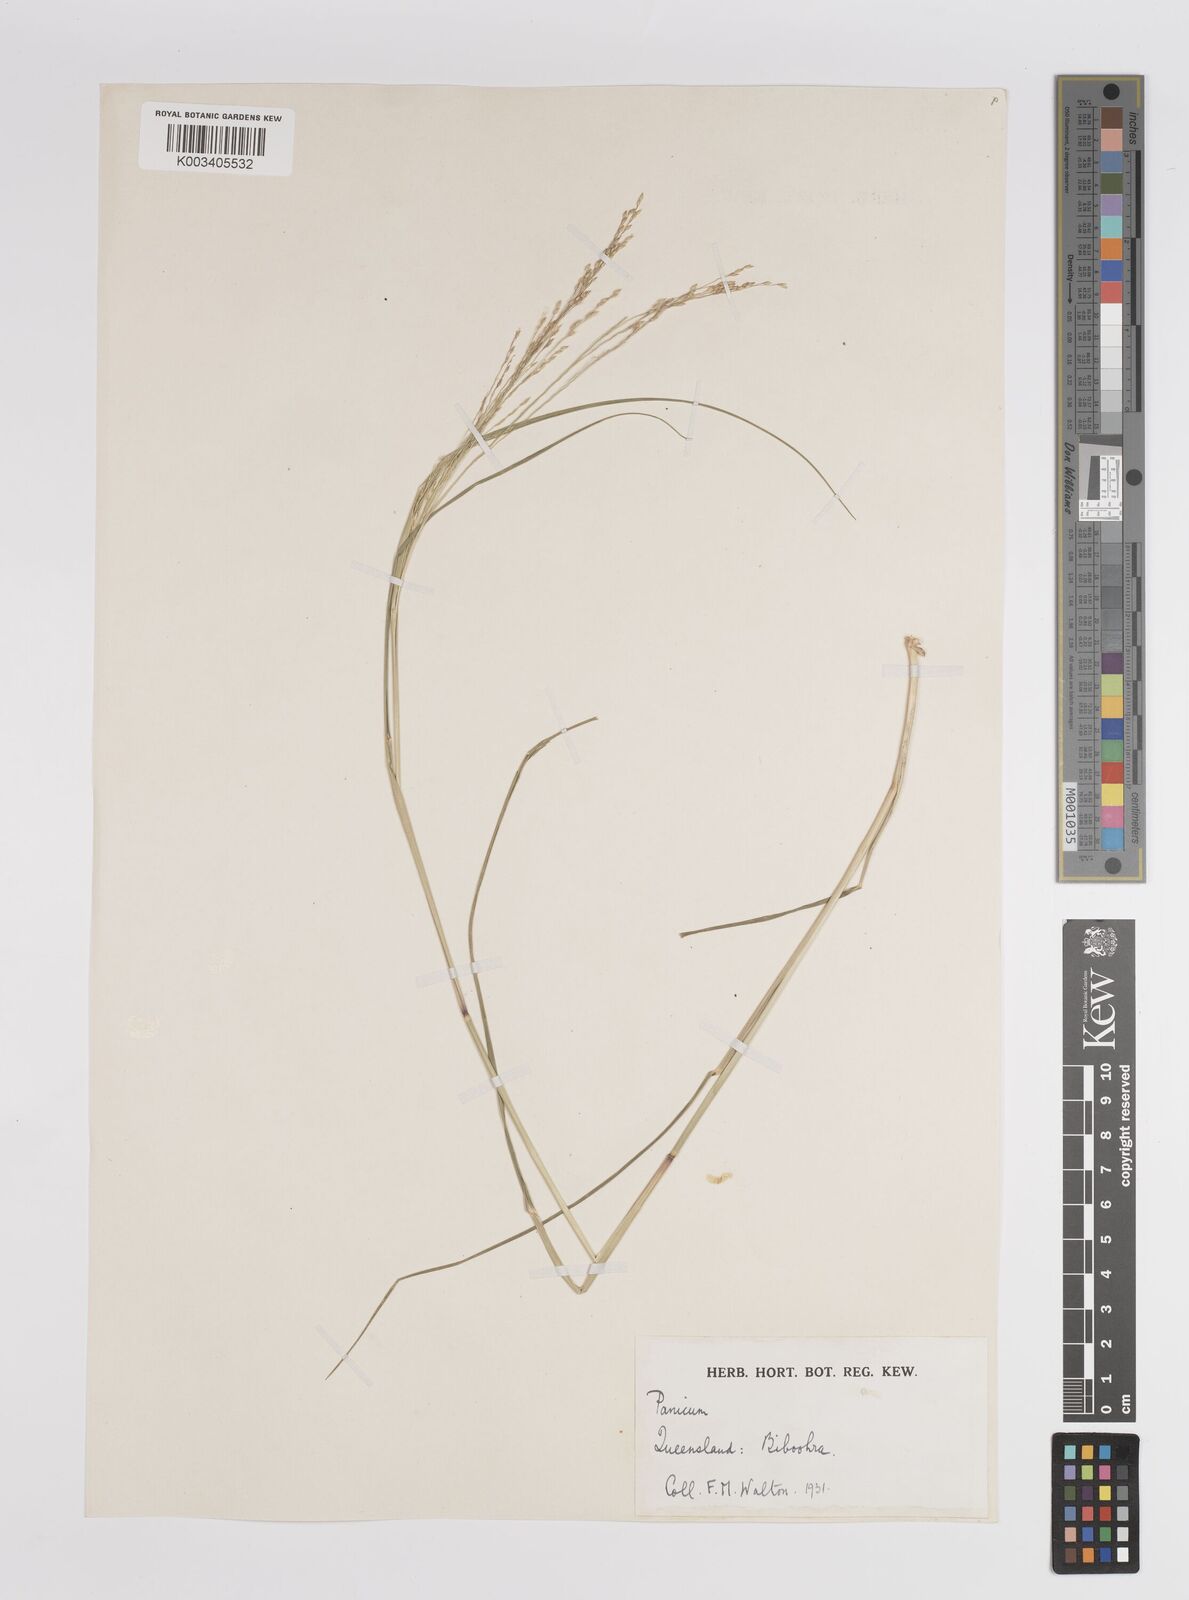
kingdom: Plantae
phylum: Tracheophyta
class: Liliopsida
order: Poales
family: Poaceae
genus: Panicum
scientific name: Panicum
